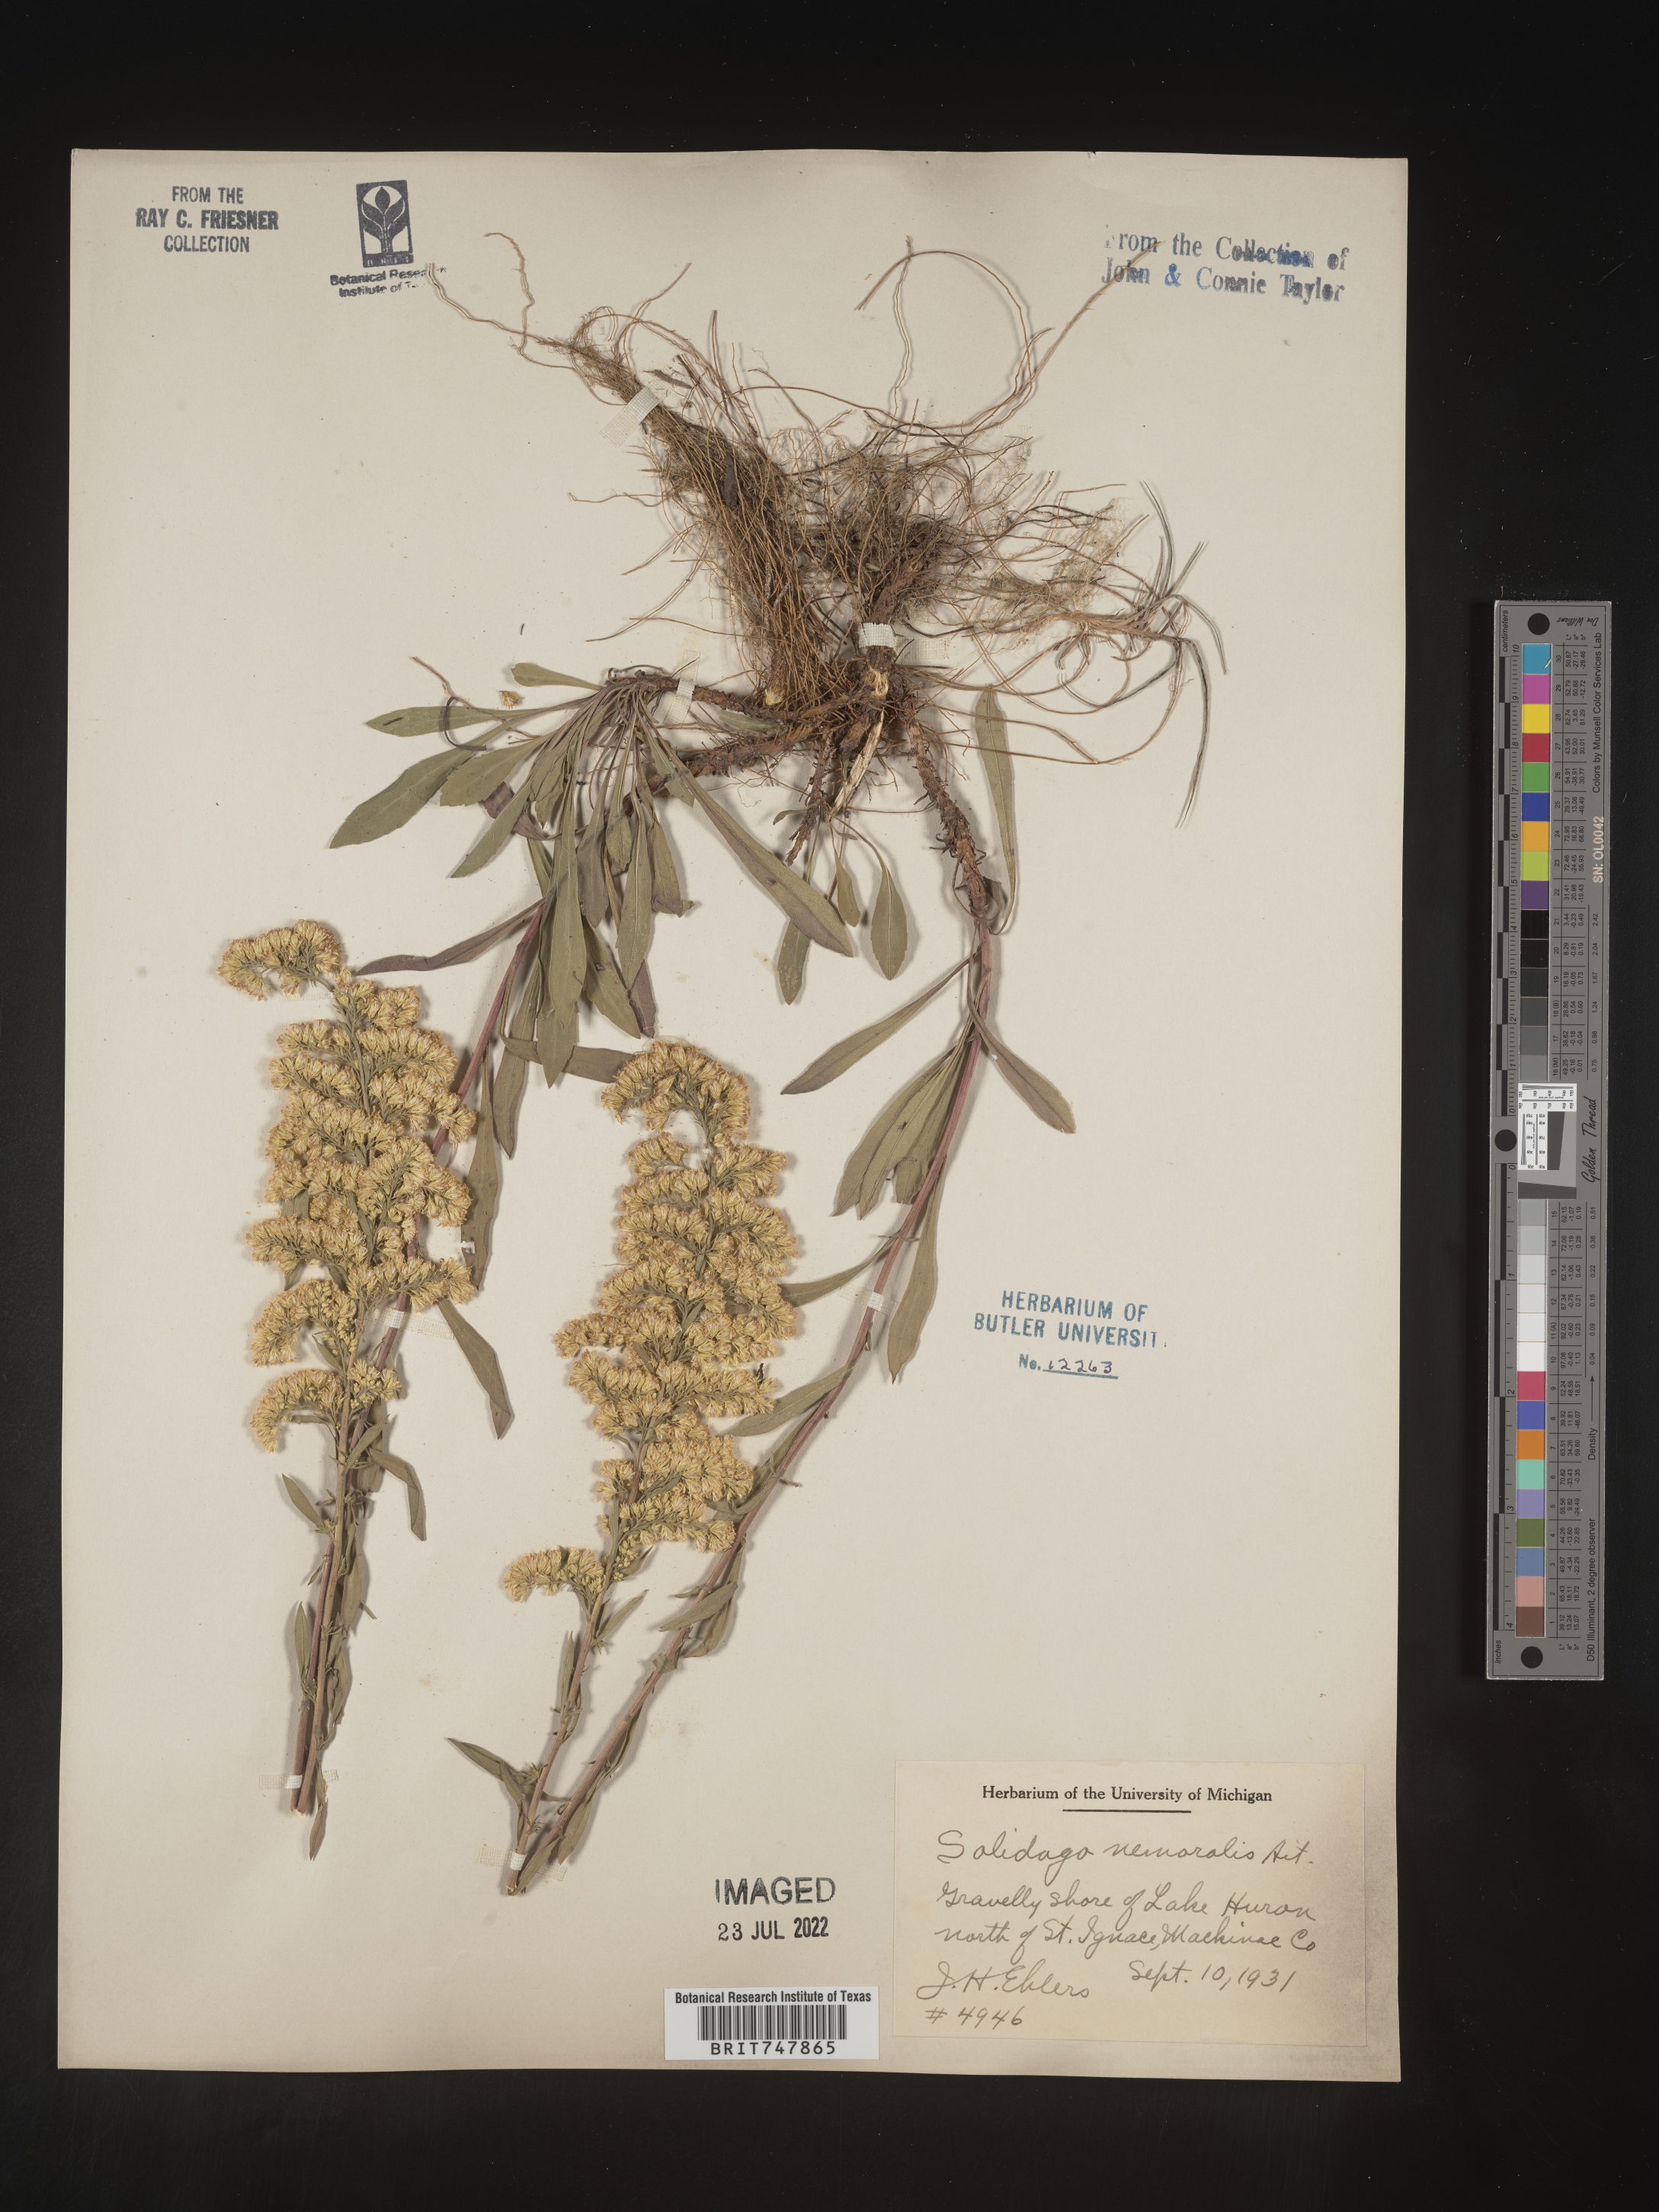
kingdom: Plantae
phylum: Tracheophyta
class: Magnoliopsida
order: Asterales
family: Asteraceae
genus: Solidago
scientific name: Solidago nemoralis
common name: Grey goldenrod
